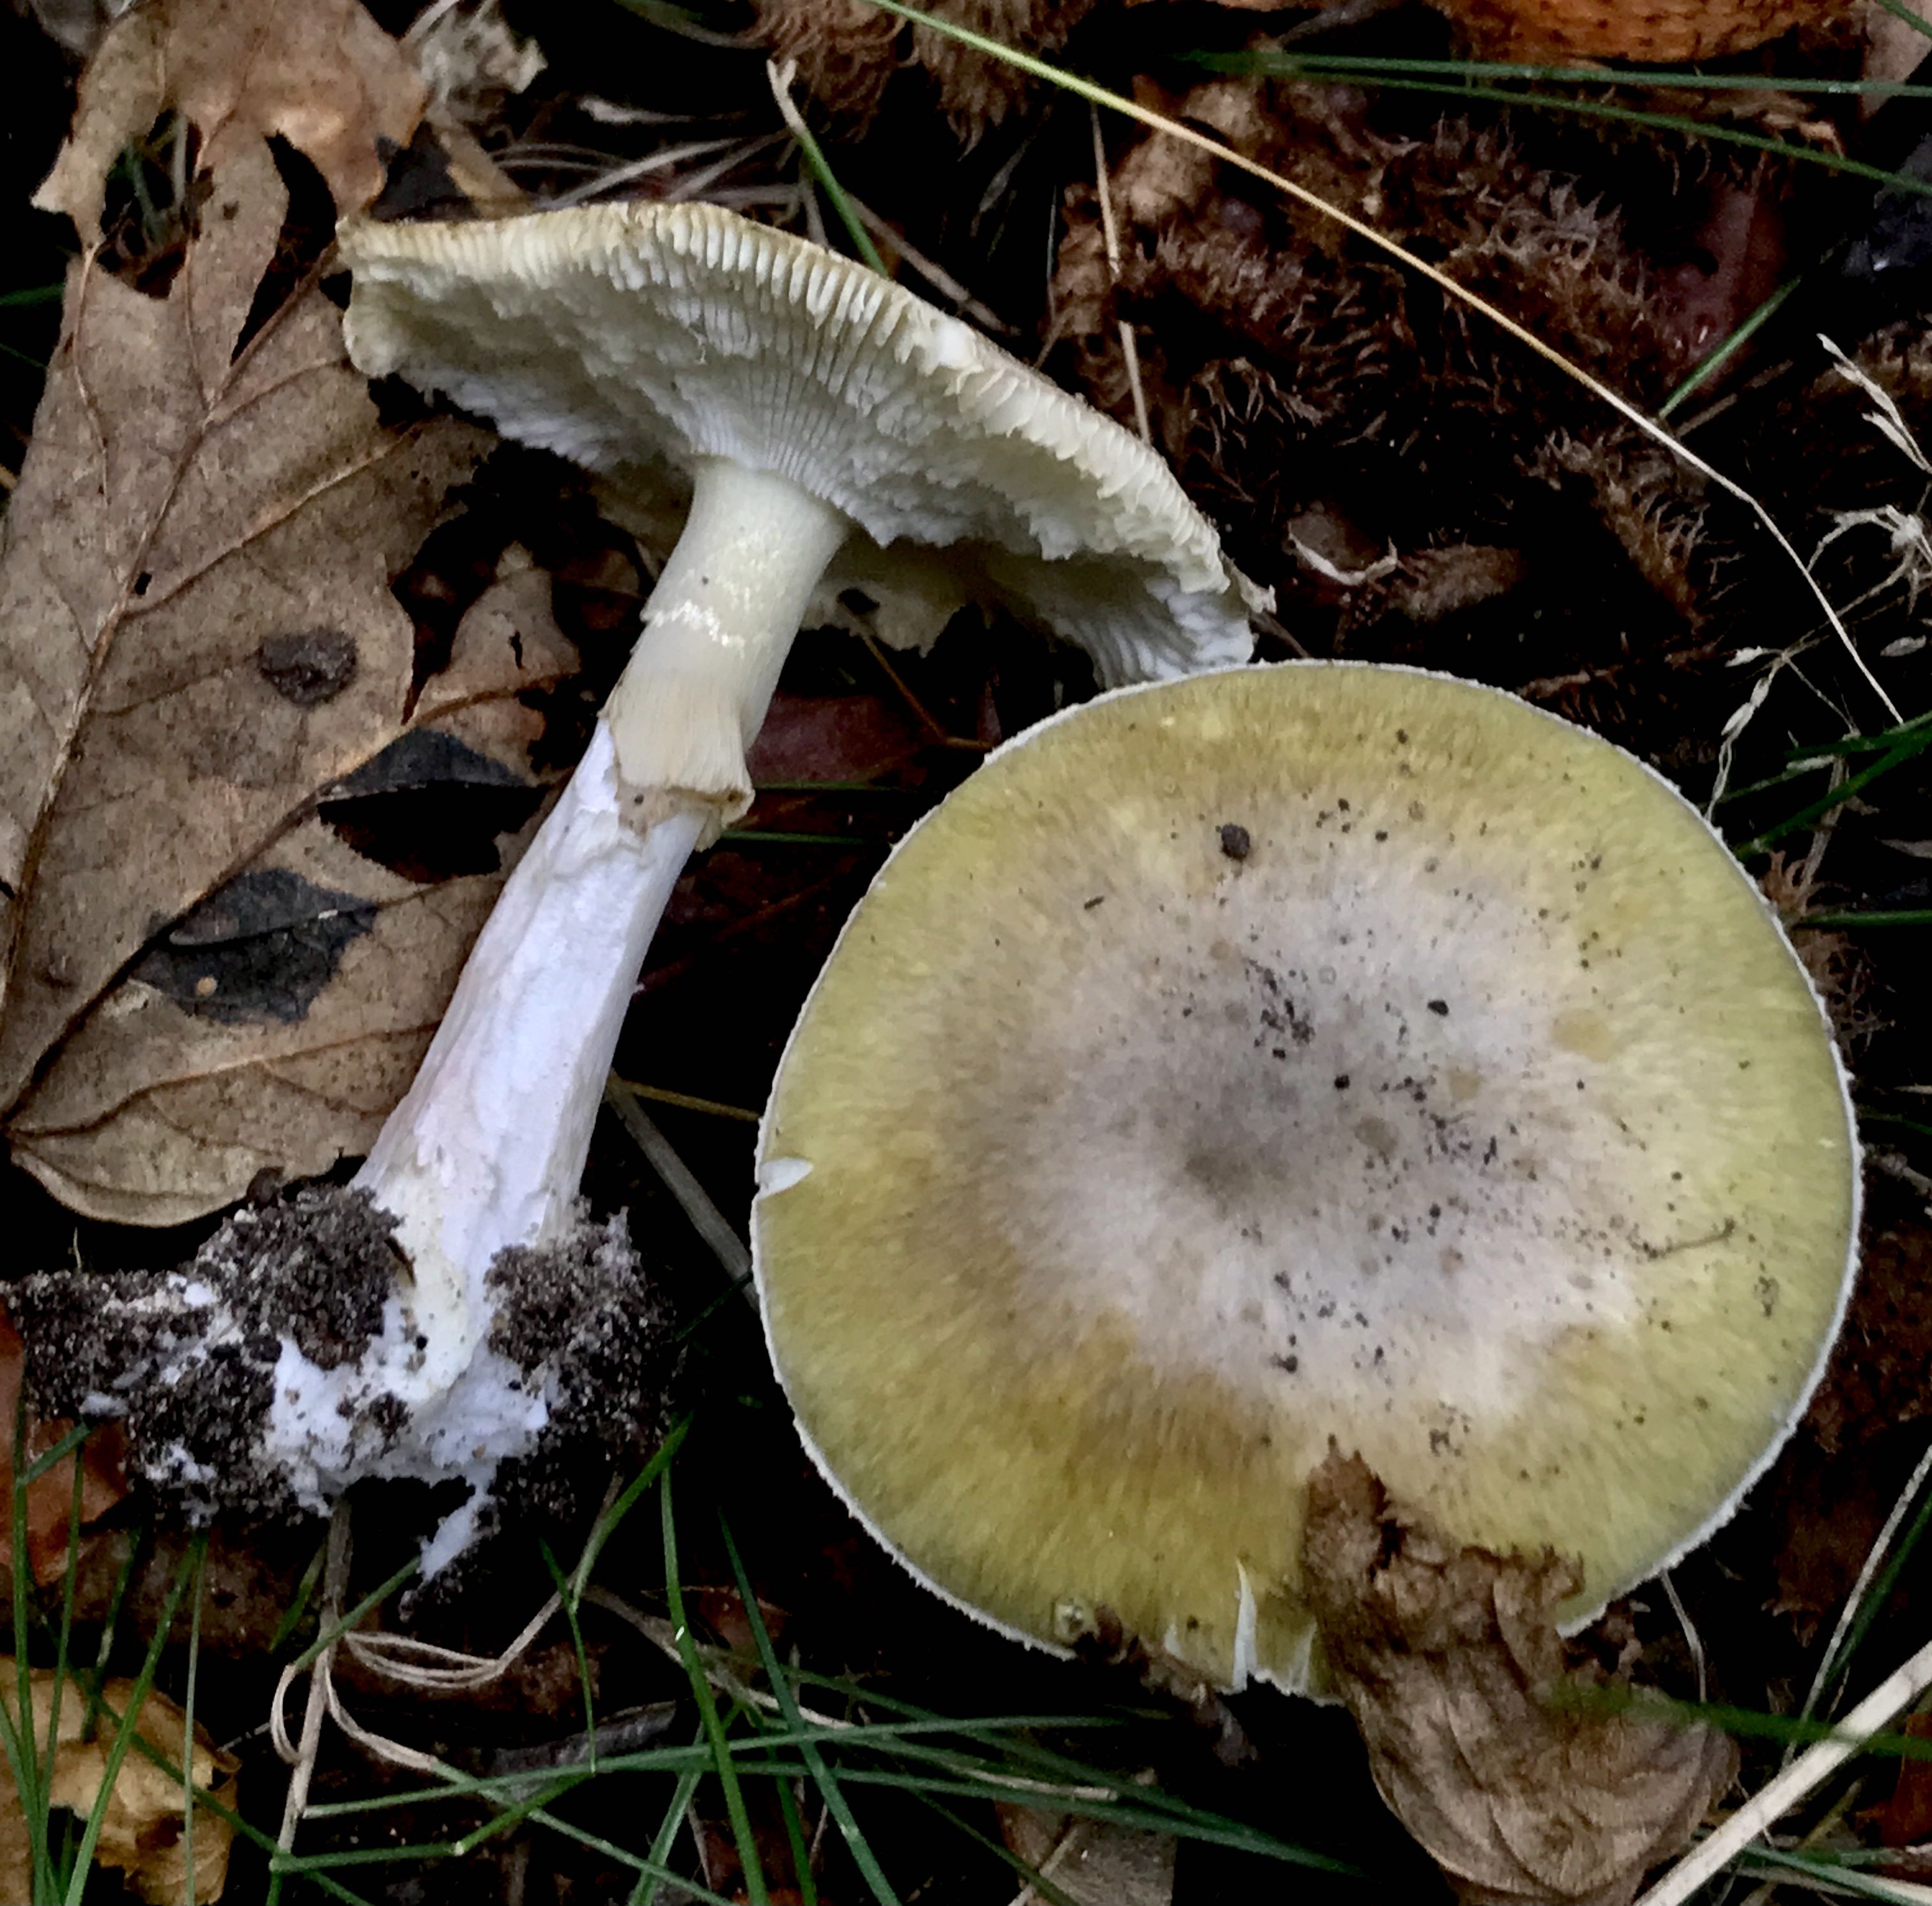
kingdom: Fungi
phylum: Basidiomycota
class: Agaricomycetes
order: Agaricales
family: Amanitaceae
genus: Amanita
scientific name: Amanita phalloides
